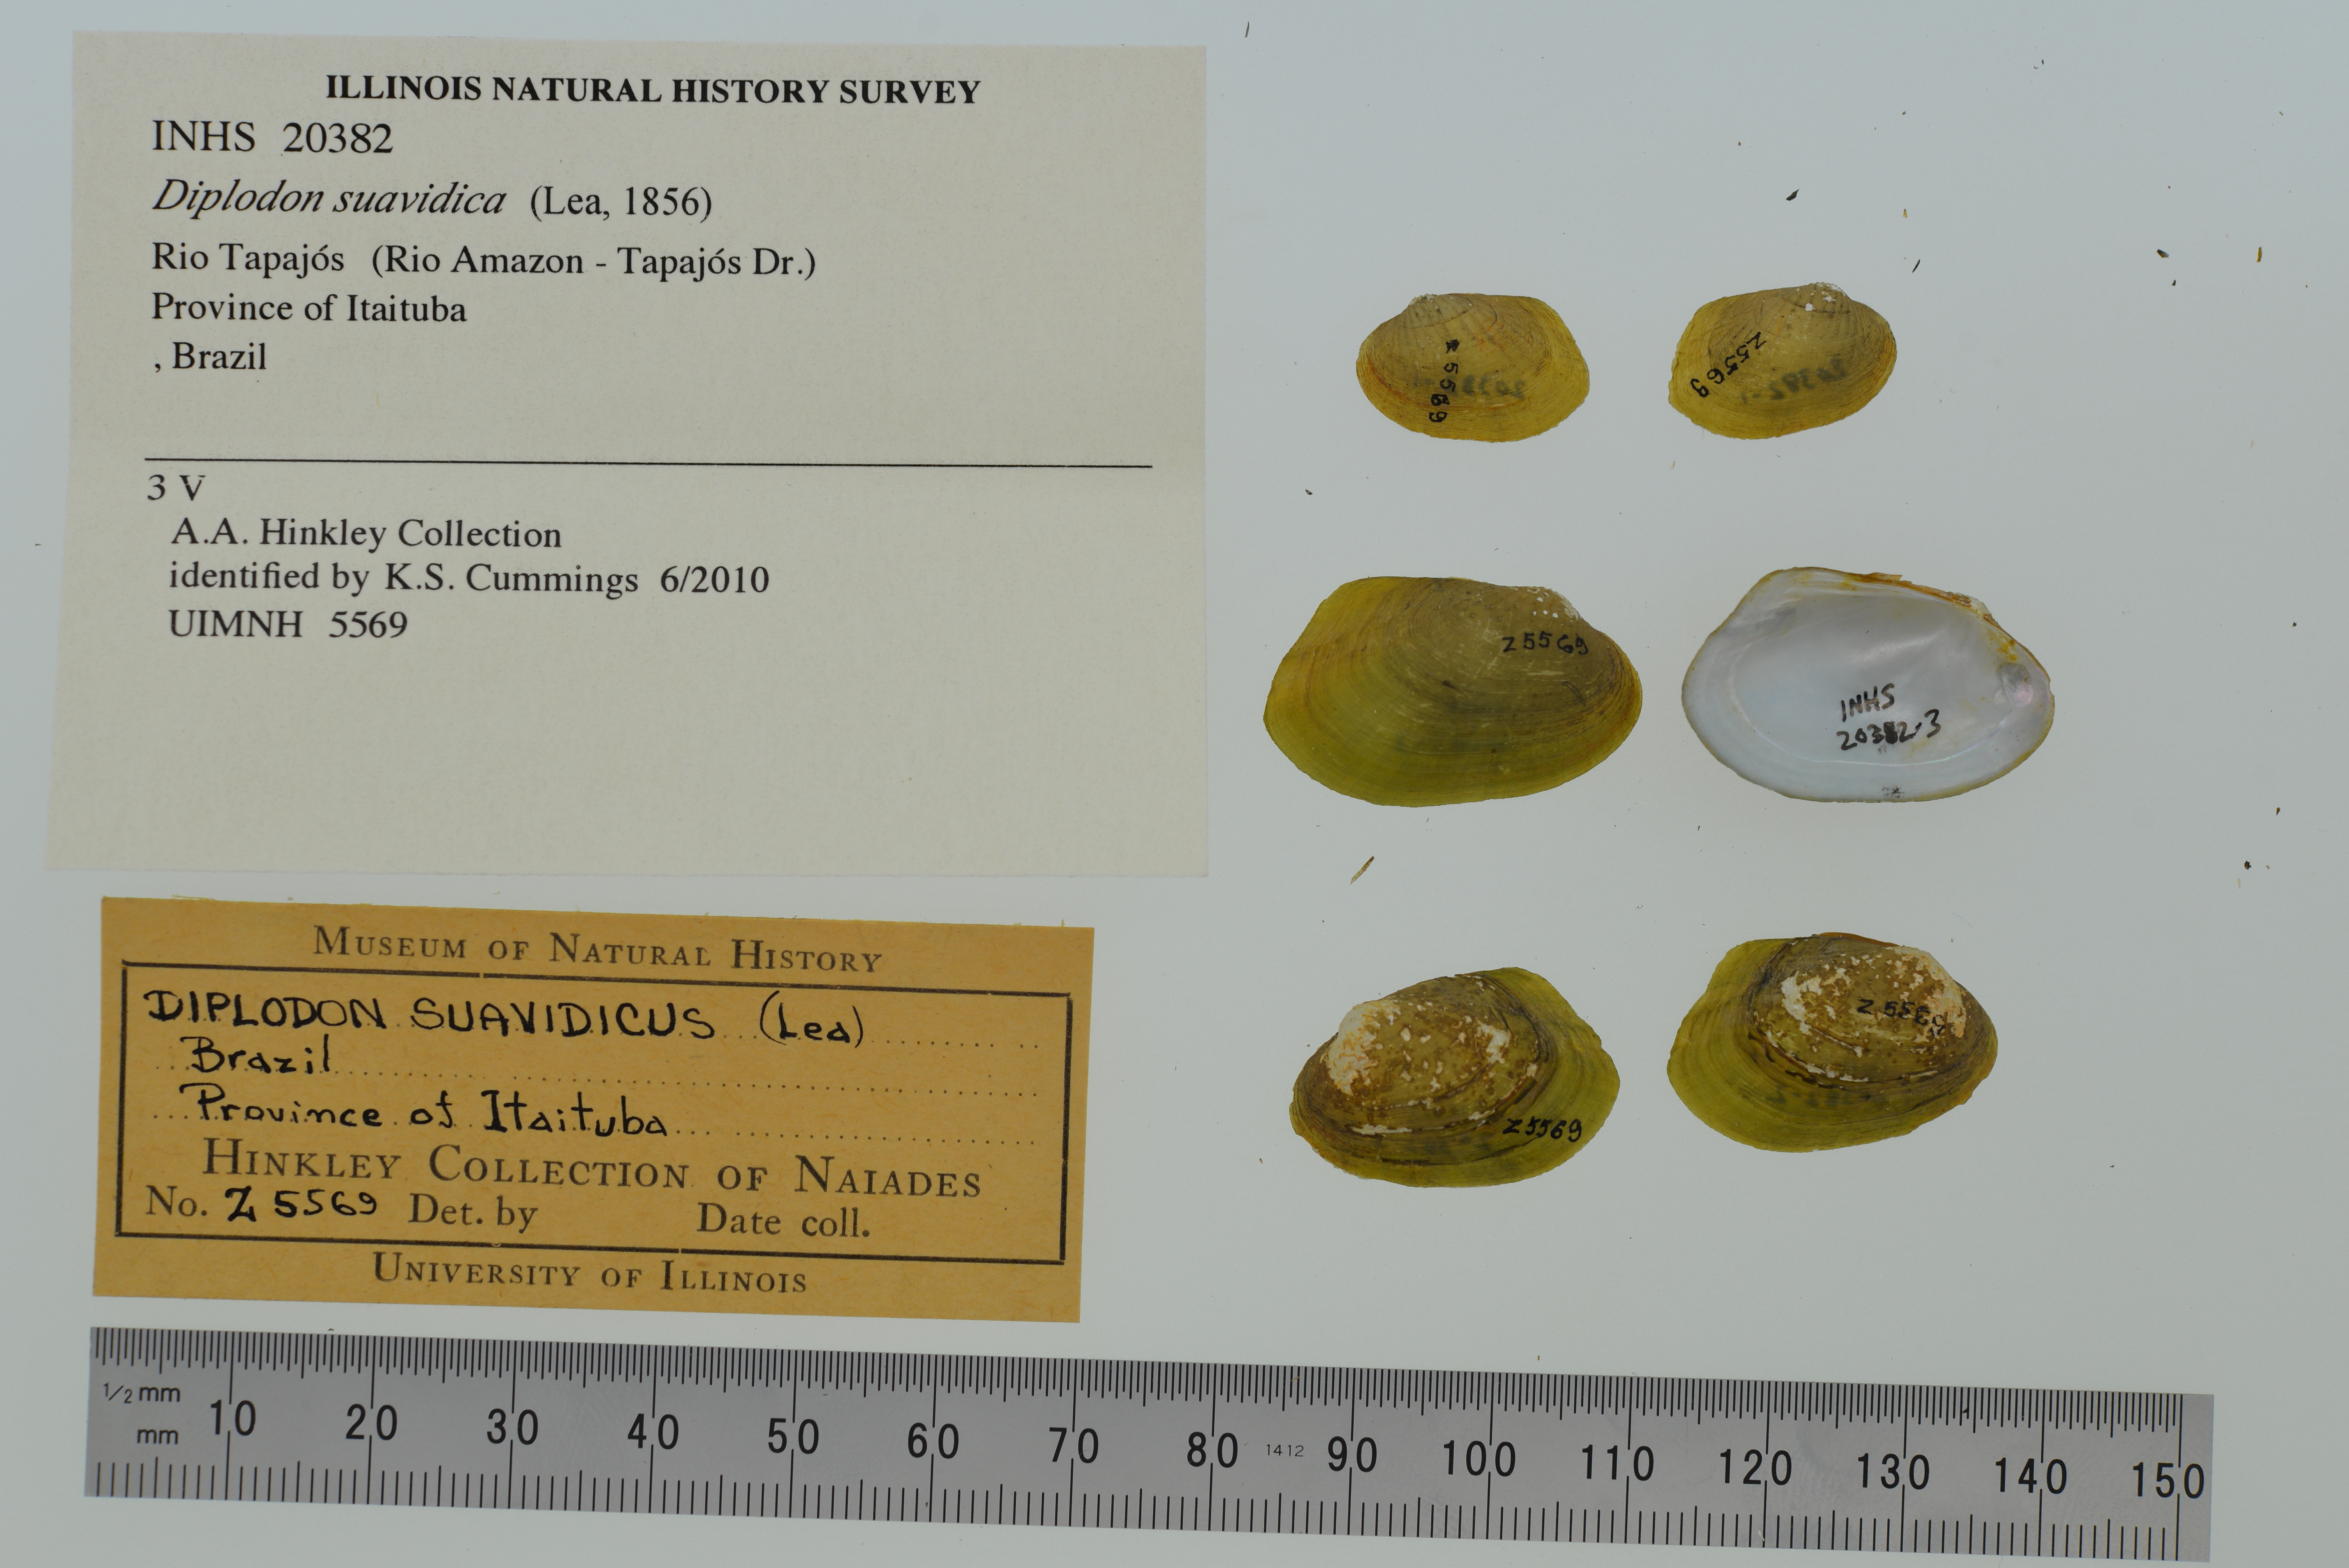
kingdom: Animalia
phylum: Mollusca
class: Bivalvia
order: Unionida
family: Hyriidae
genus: Diplodon
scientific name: Diplodon suavidicus
